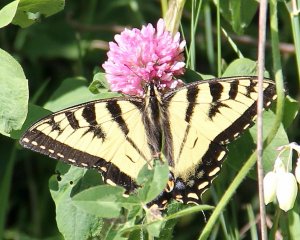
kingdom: Animalia
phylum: Arthropoda
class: Insecta
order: Lepidoptera
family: Papilionidae
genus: Pterourus
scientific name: Pterourus canadensis
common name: Canadian Tiger Swallowtail
